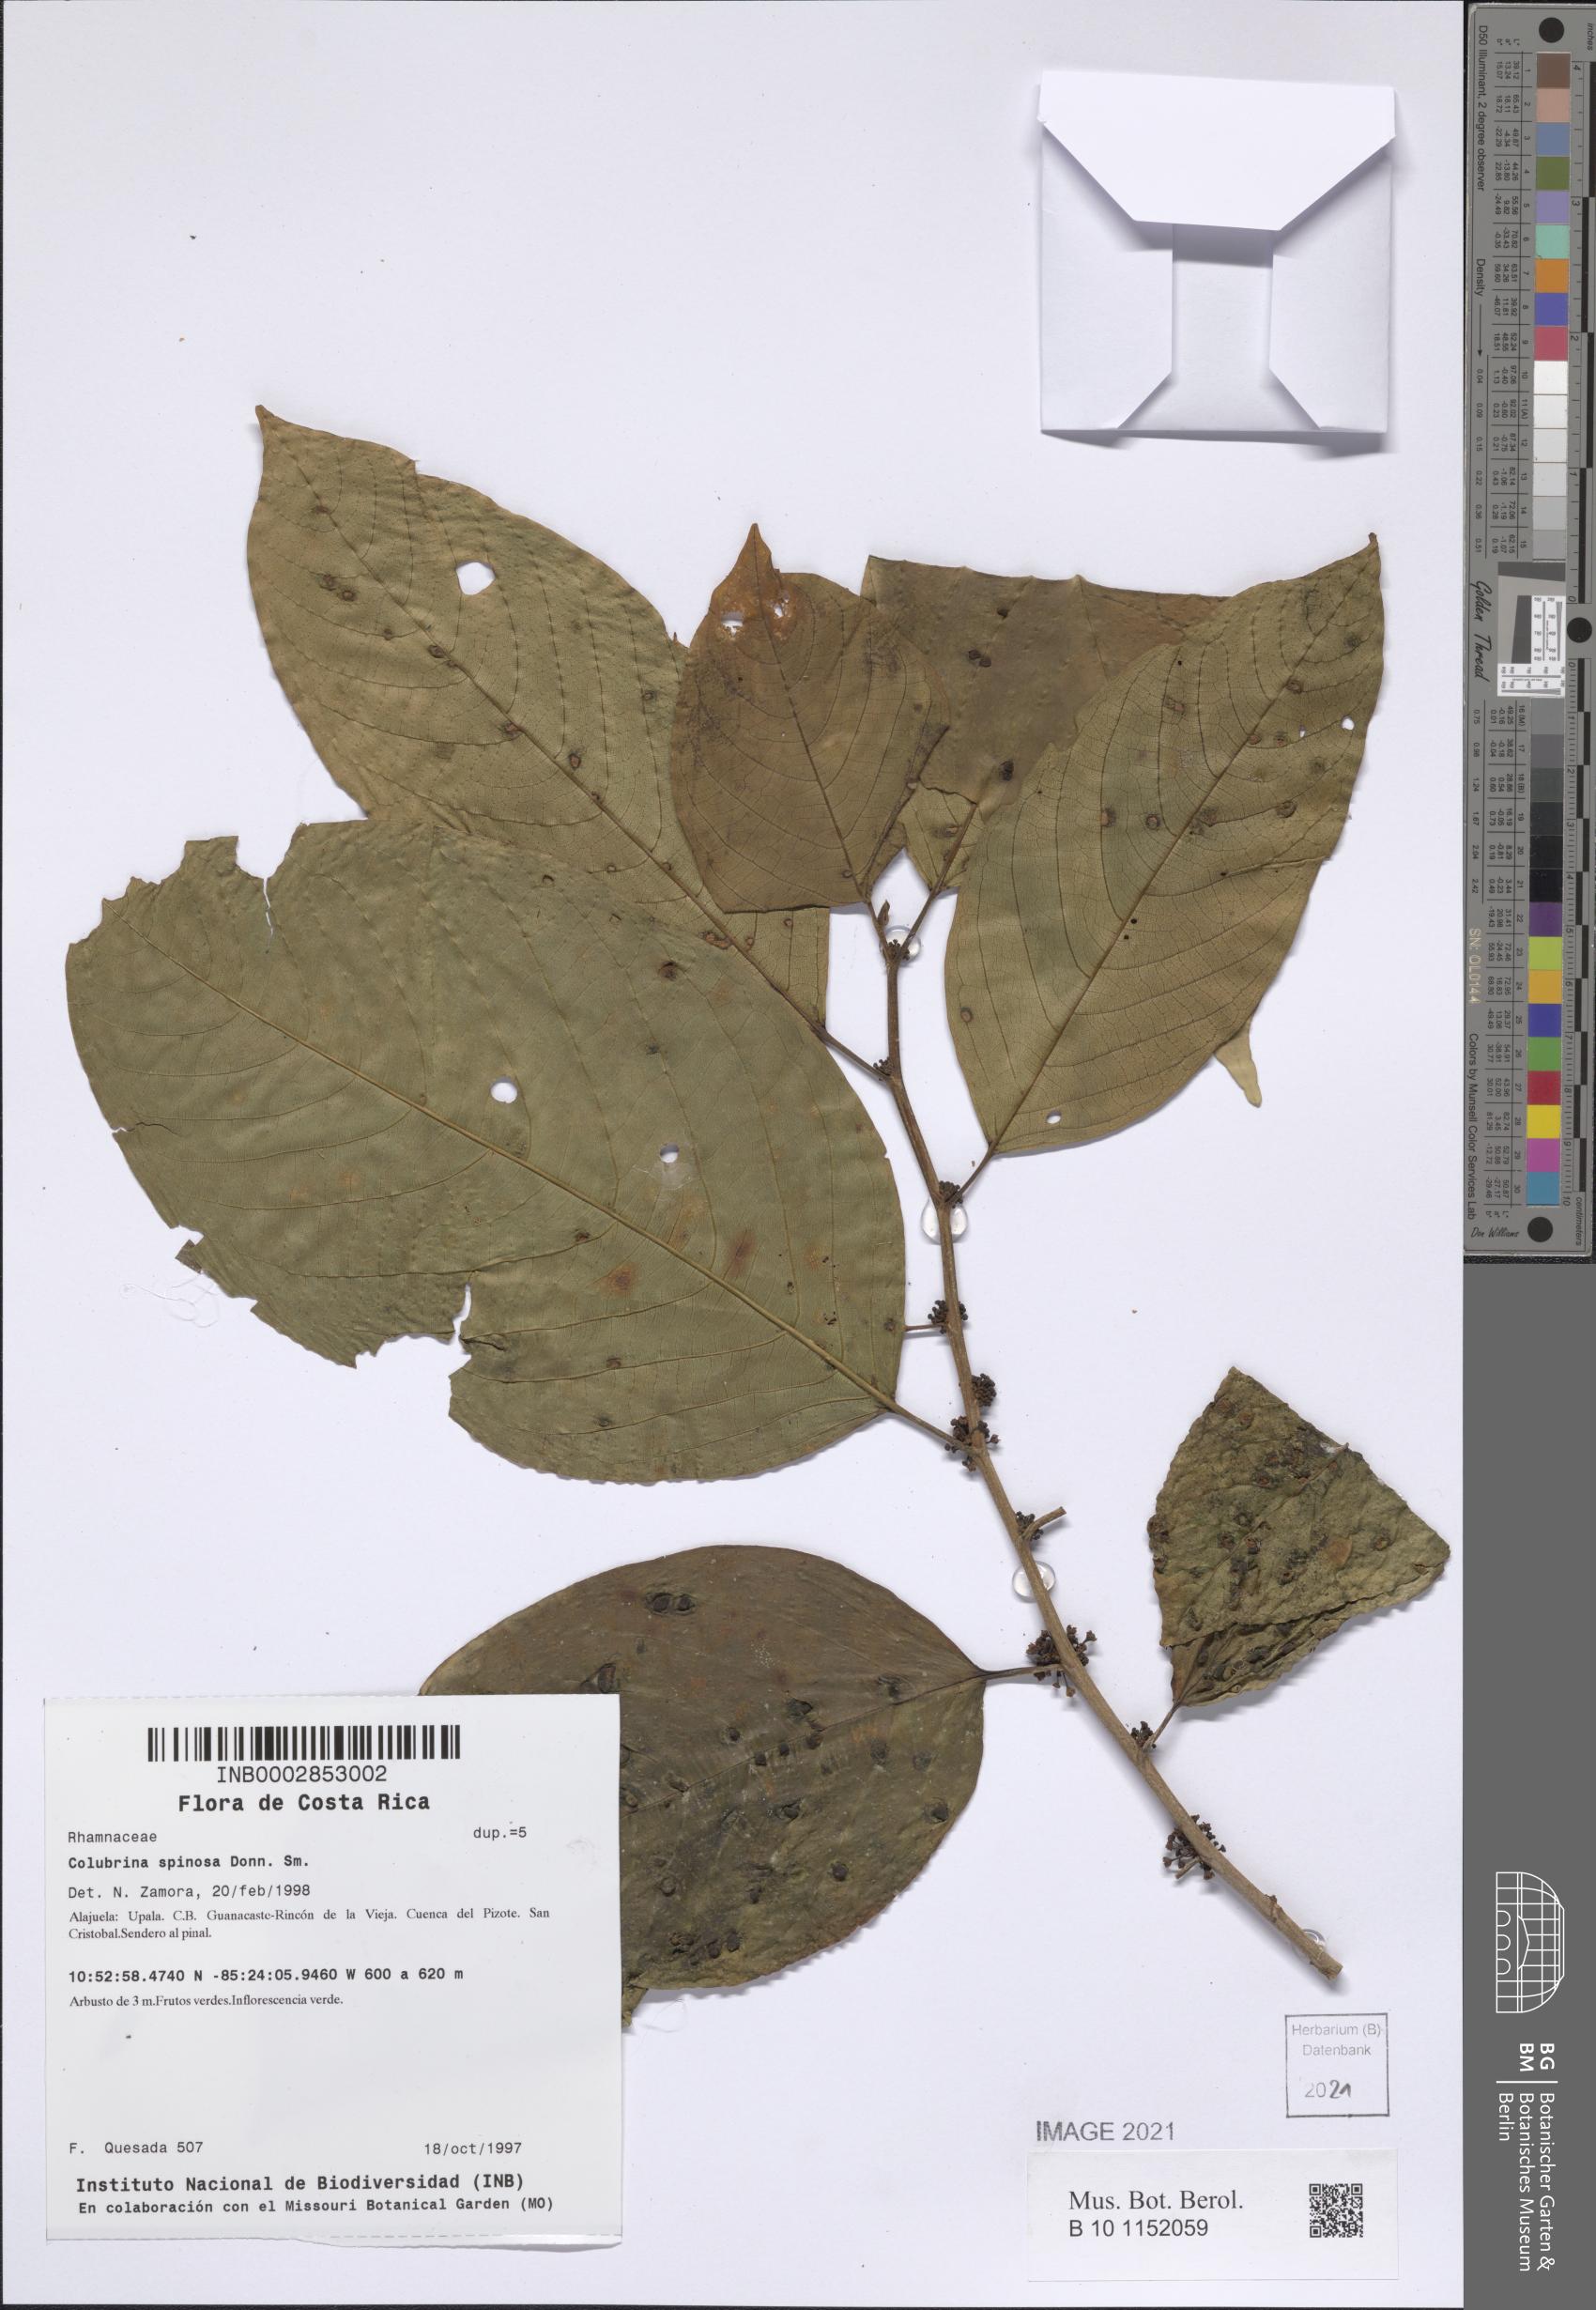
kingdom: Plantae
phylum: Tracheophyta
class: Magnoliopsida
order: Rosales
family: Rhamnaceae
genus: Colubrina
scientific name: Colubrina spinosa
